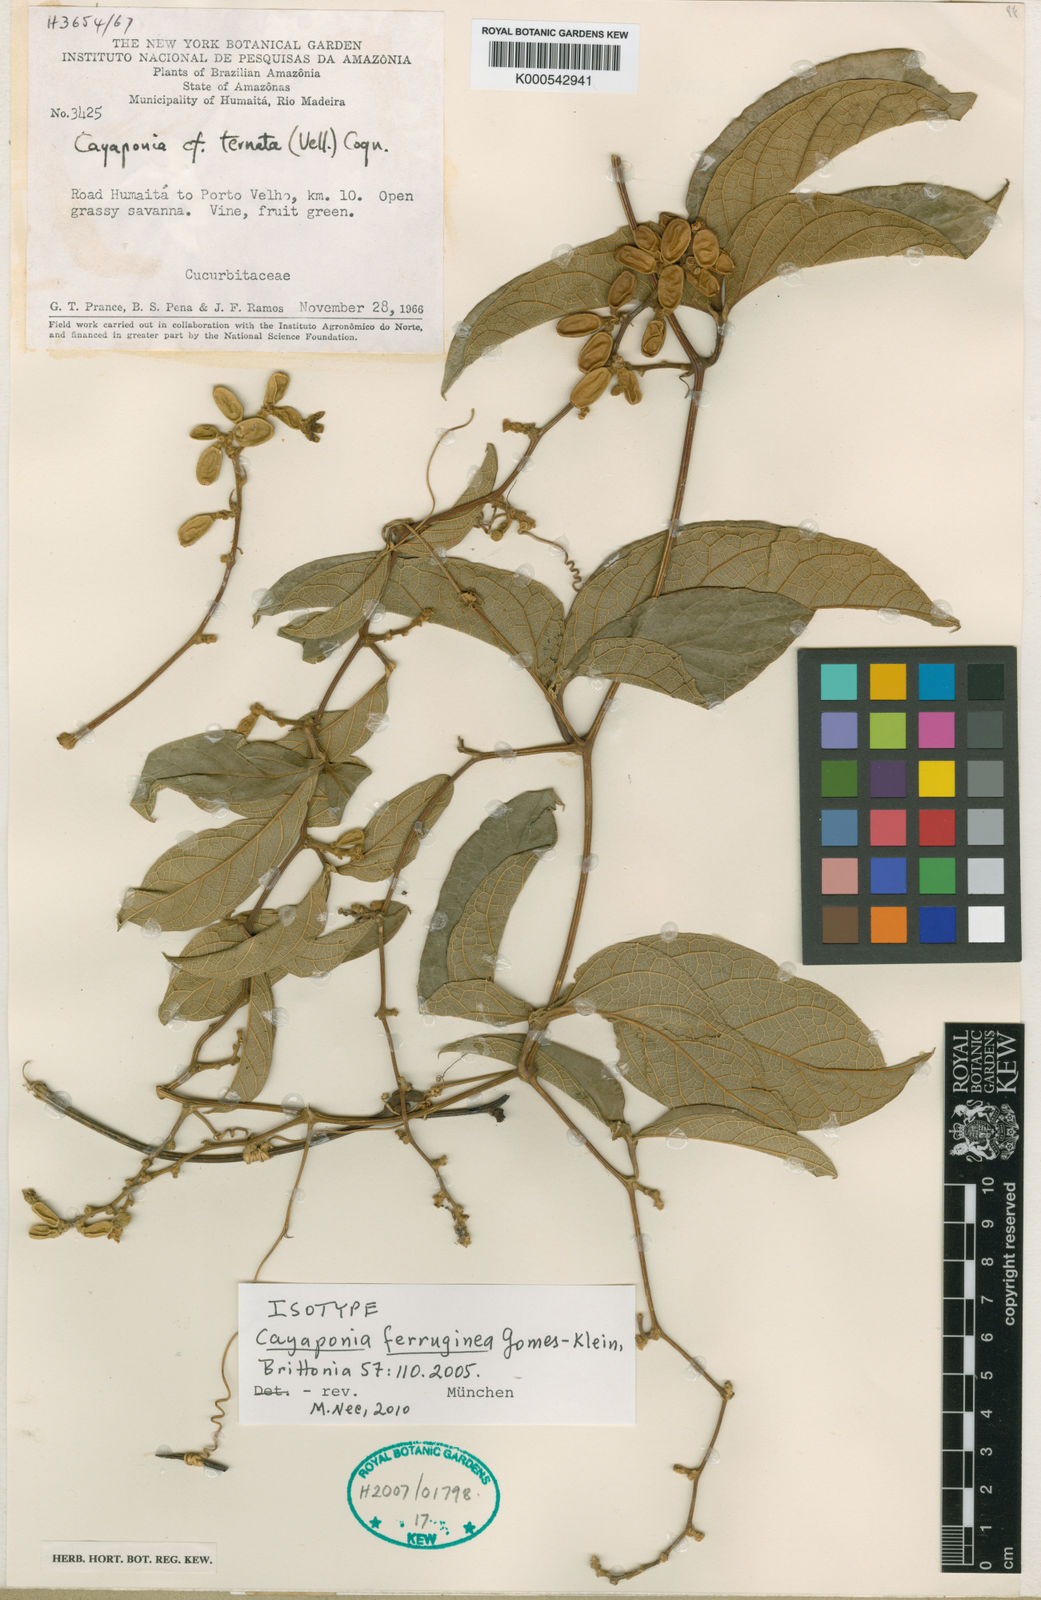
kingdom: Plantae
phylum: Tracheophyta
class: Magnoliopsida
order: Cucurbitales
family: Cucurbitaceae
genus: Cayaponia
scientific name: Cayaponia ferruginea
